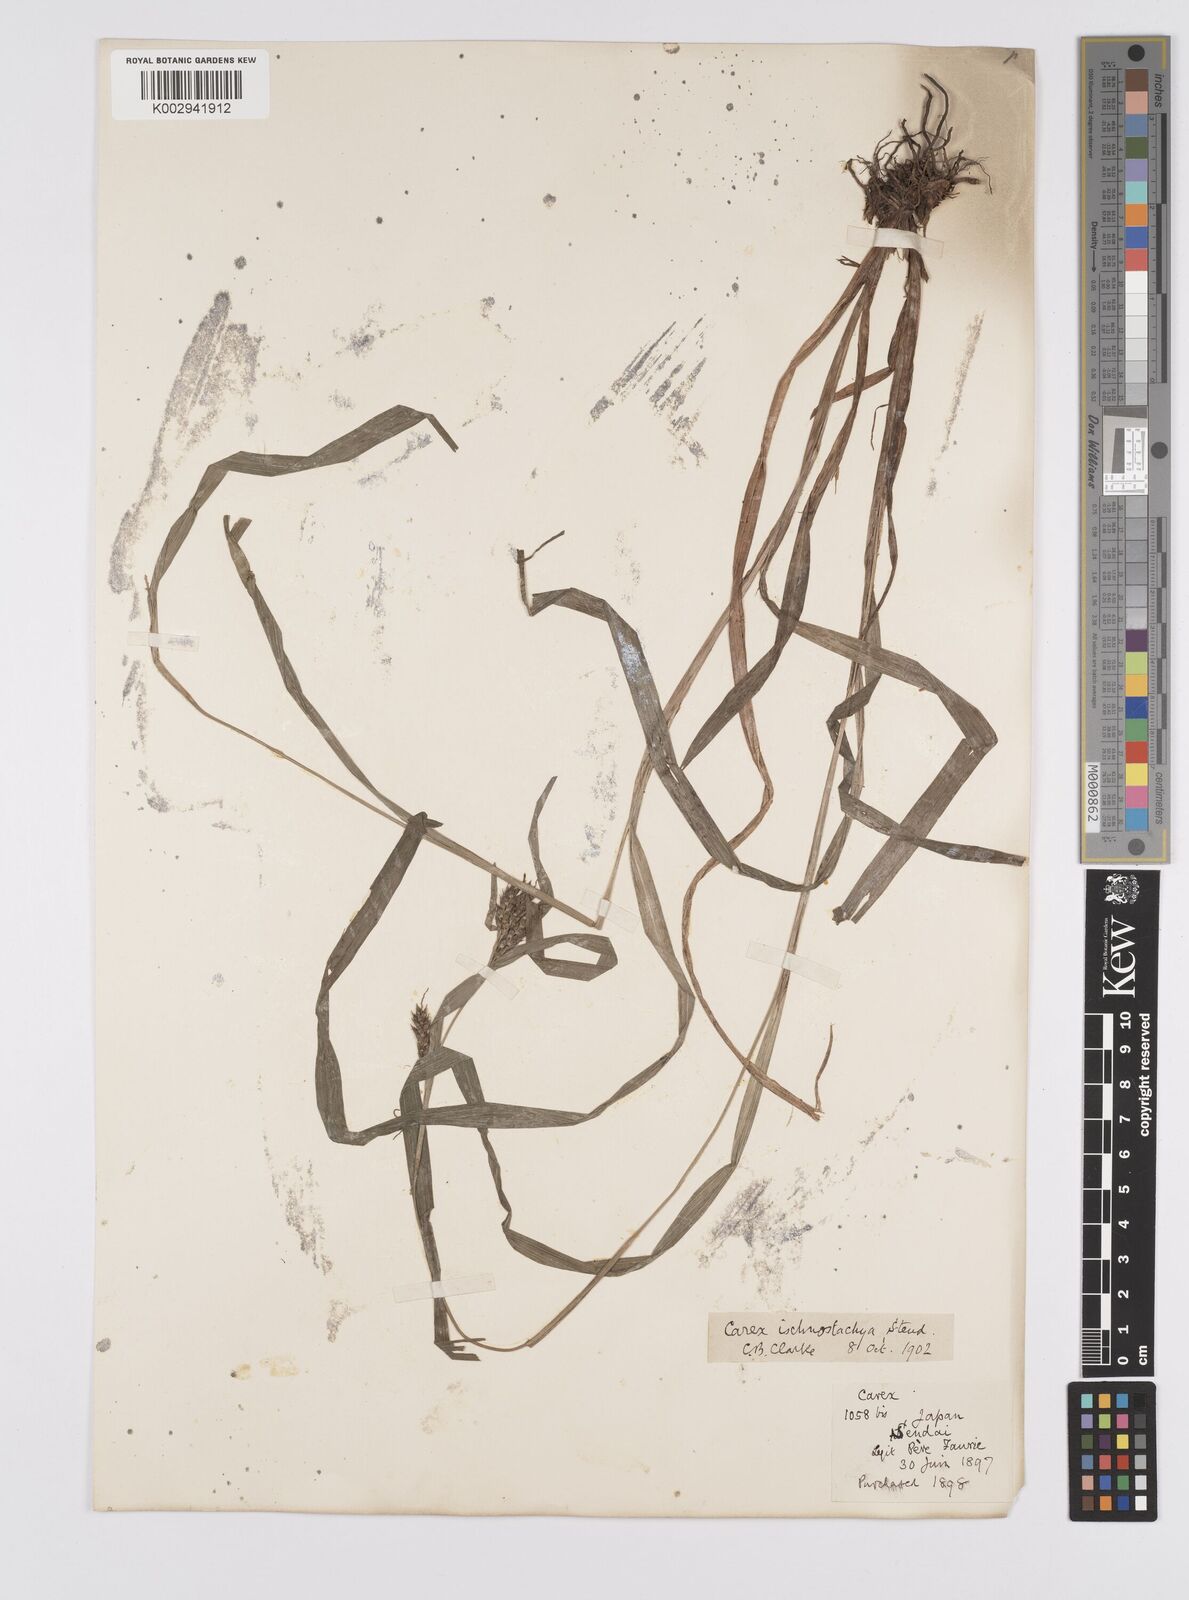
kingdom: Plantae
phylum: Tracheophyta
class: Liliopsida
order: Poales
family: Cyperaceae
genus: Carex
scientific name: Carex ischnostachya
